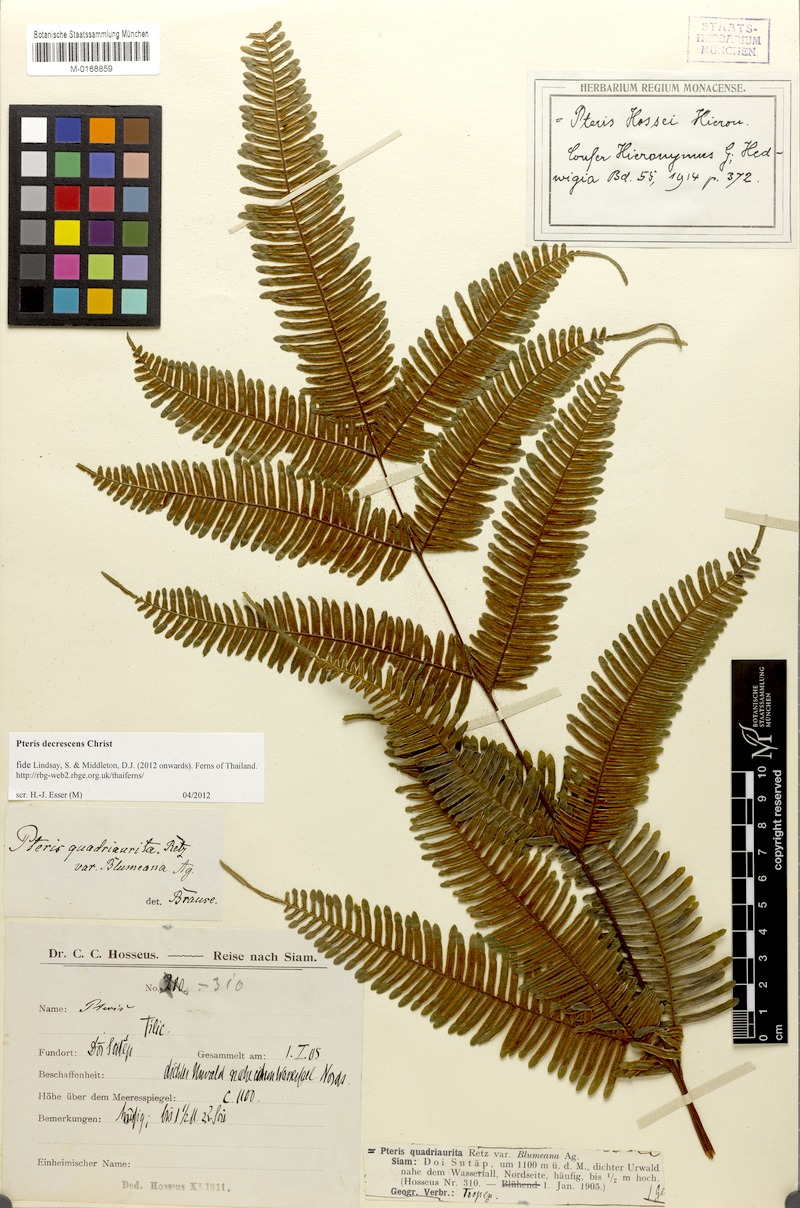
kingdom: Plantae
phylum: Tracheophyta
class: Polypodiopsida
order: Polypodiales
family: Pteridaceae
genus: Pteris
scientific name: Pteris decrescens
